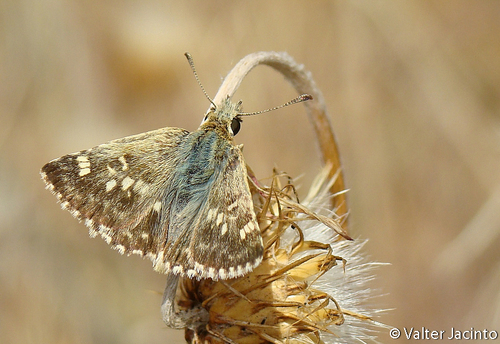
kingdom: Animalia
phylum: Arthropoda
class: Insecta
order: Lepidoptera
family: Hesperiidae
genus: Syrichtus
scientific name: Syrichtus Muschampia proto
